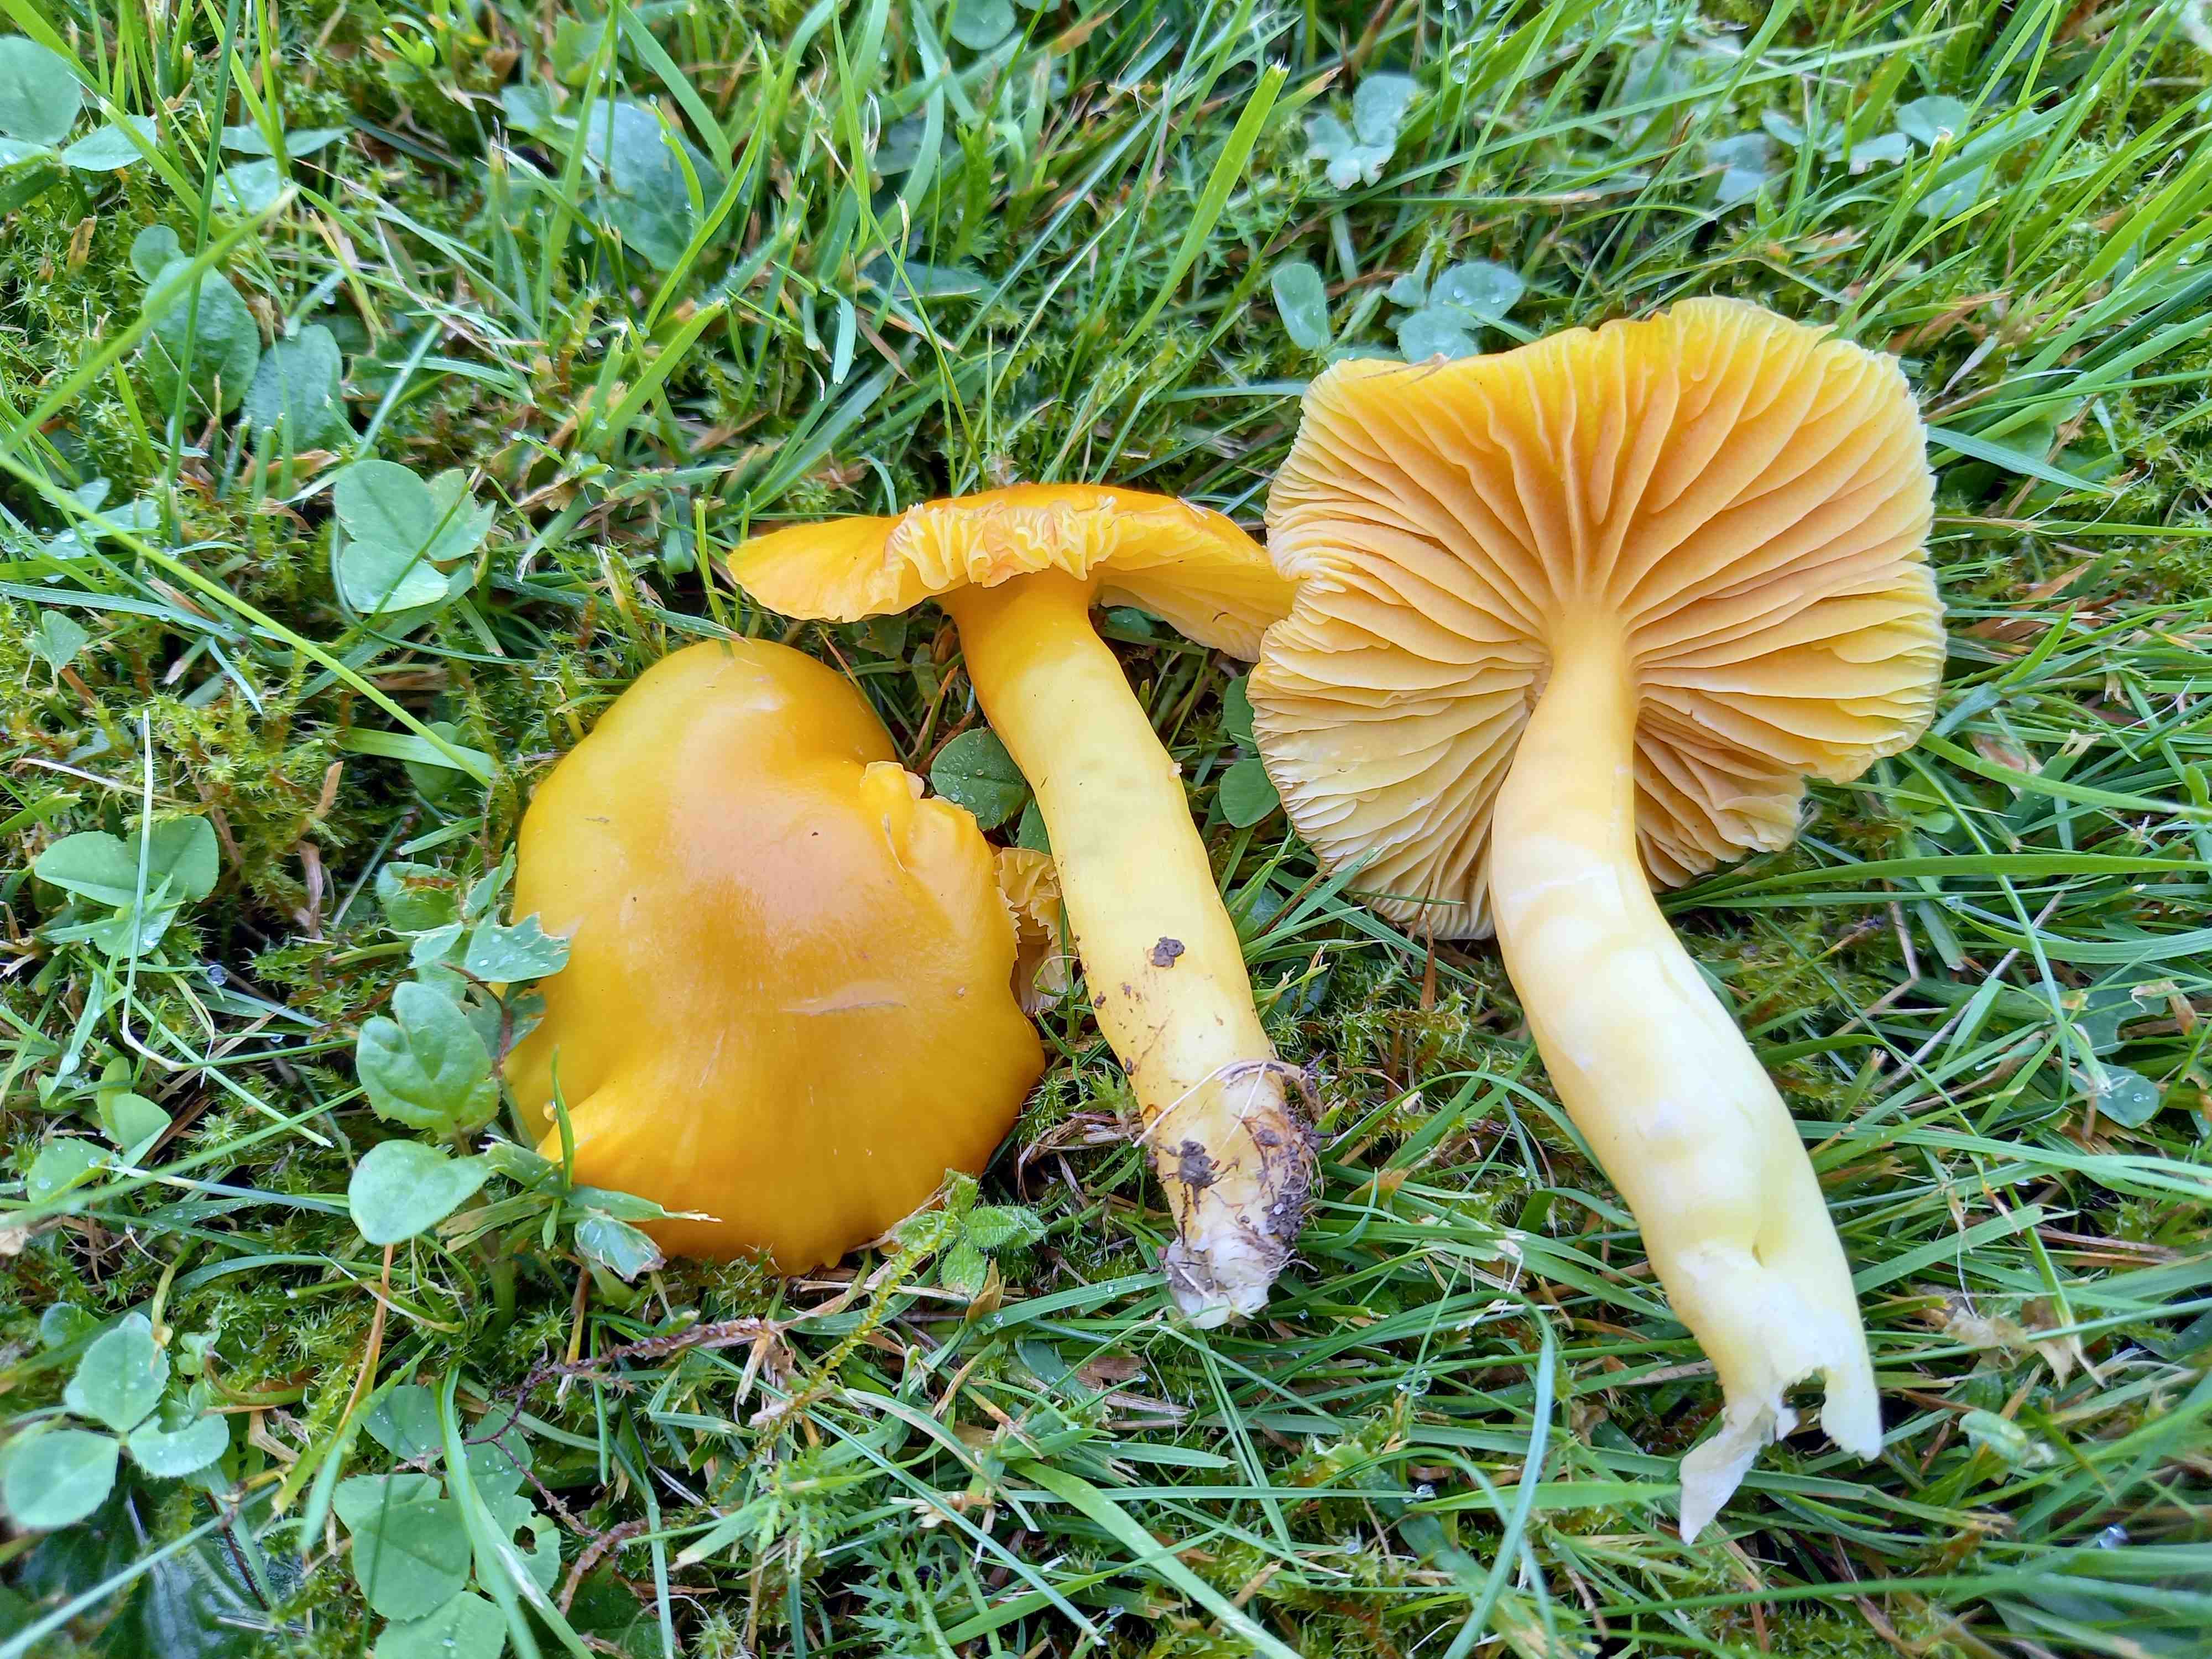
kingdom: Fungi
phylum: Basidiomycota
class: Agaricomycetes
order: Agaricales
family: Hygrophoraceae
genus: Hygrocybe
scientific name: Hygrocybe quieta
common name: tæge-vokshat
